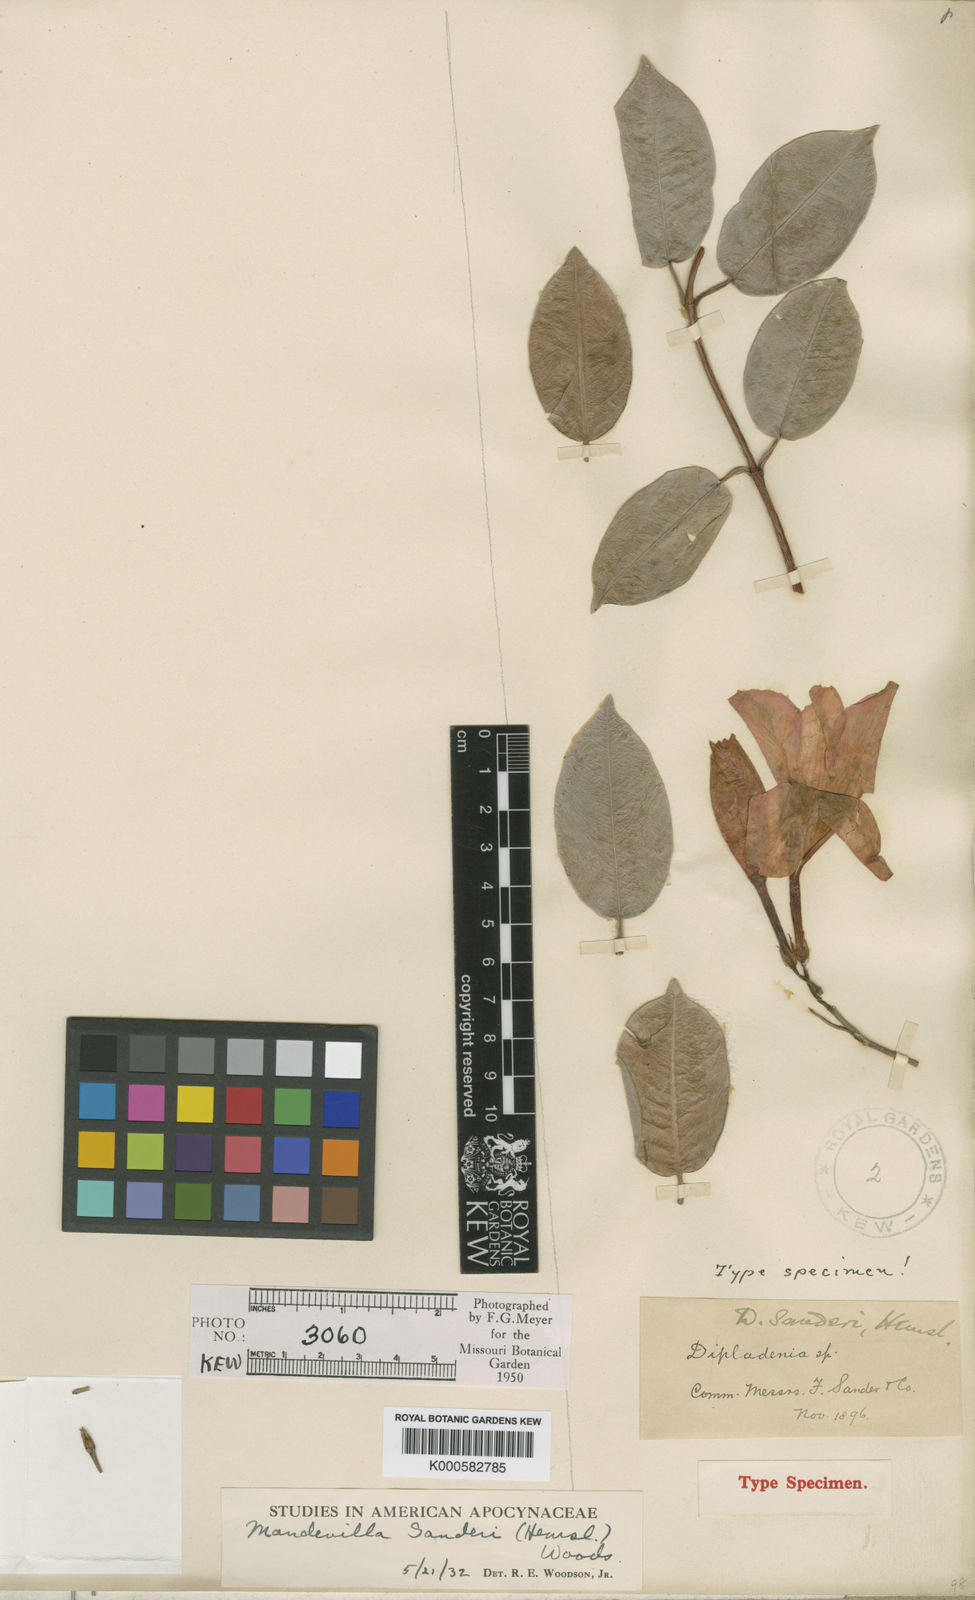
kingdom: Plantae
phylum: Tracheophyta
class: Magnoliopsida
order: Gentianales
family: Apocynaceae
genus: Mandevilla
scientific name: Mandevilla sanderi
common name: Brazilian-jasmine
